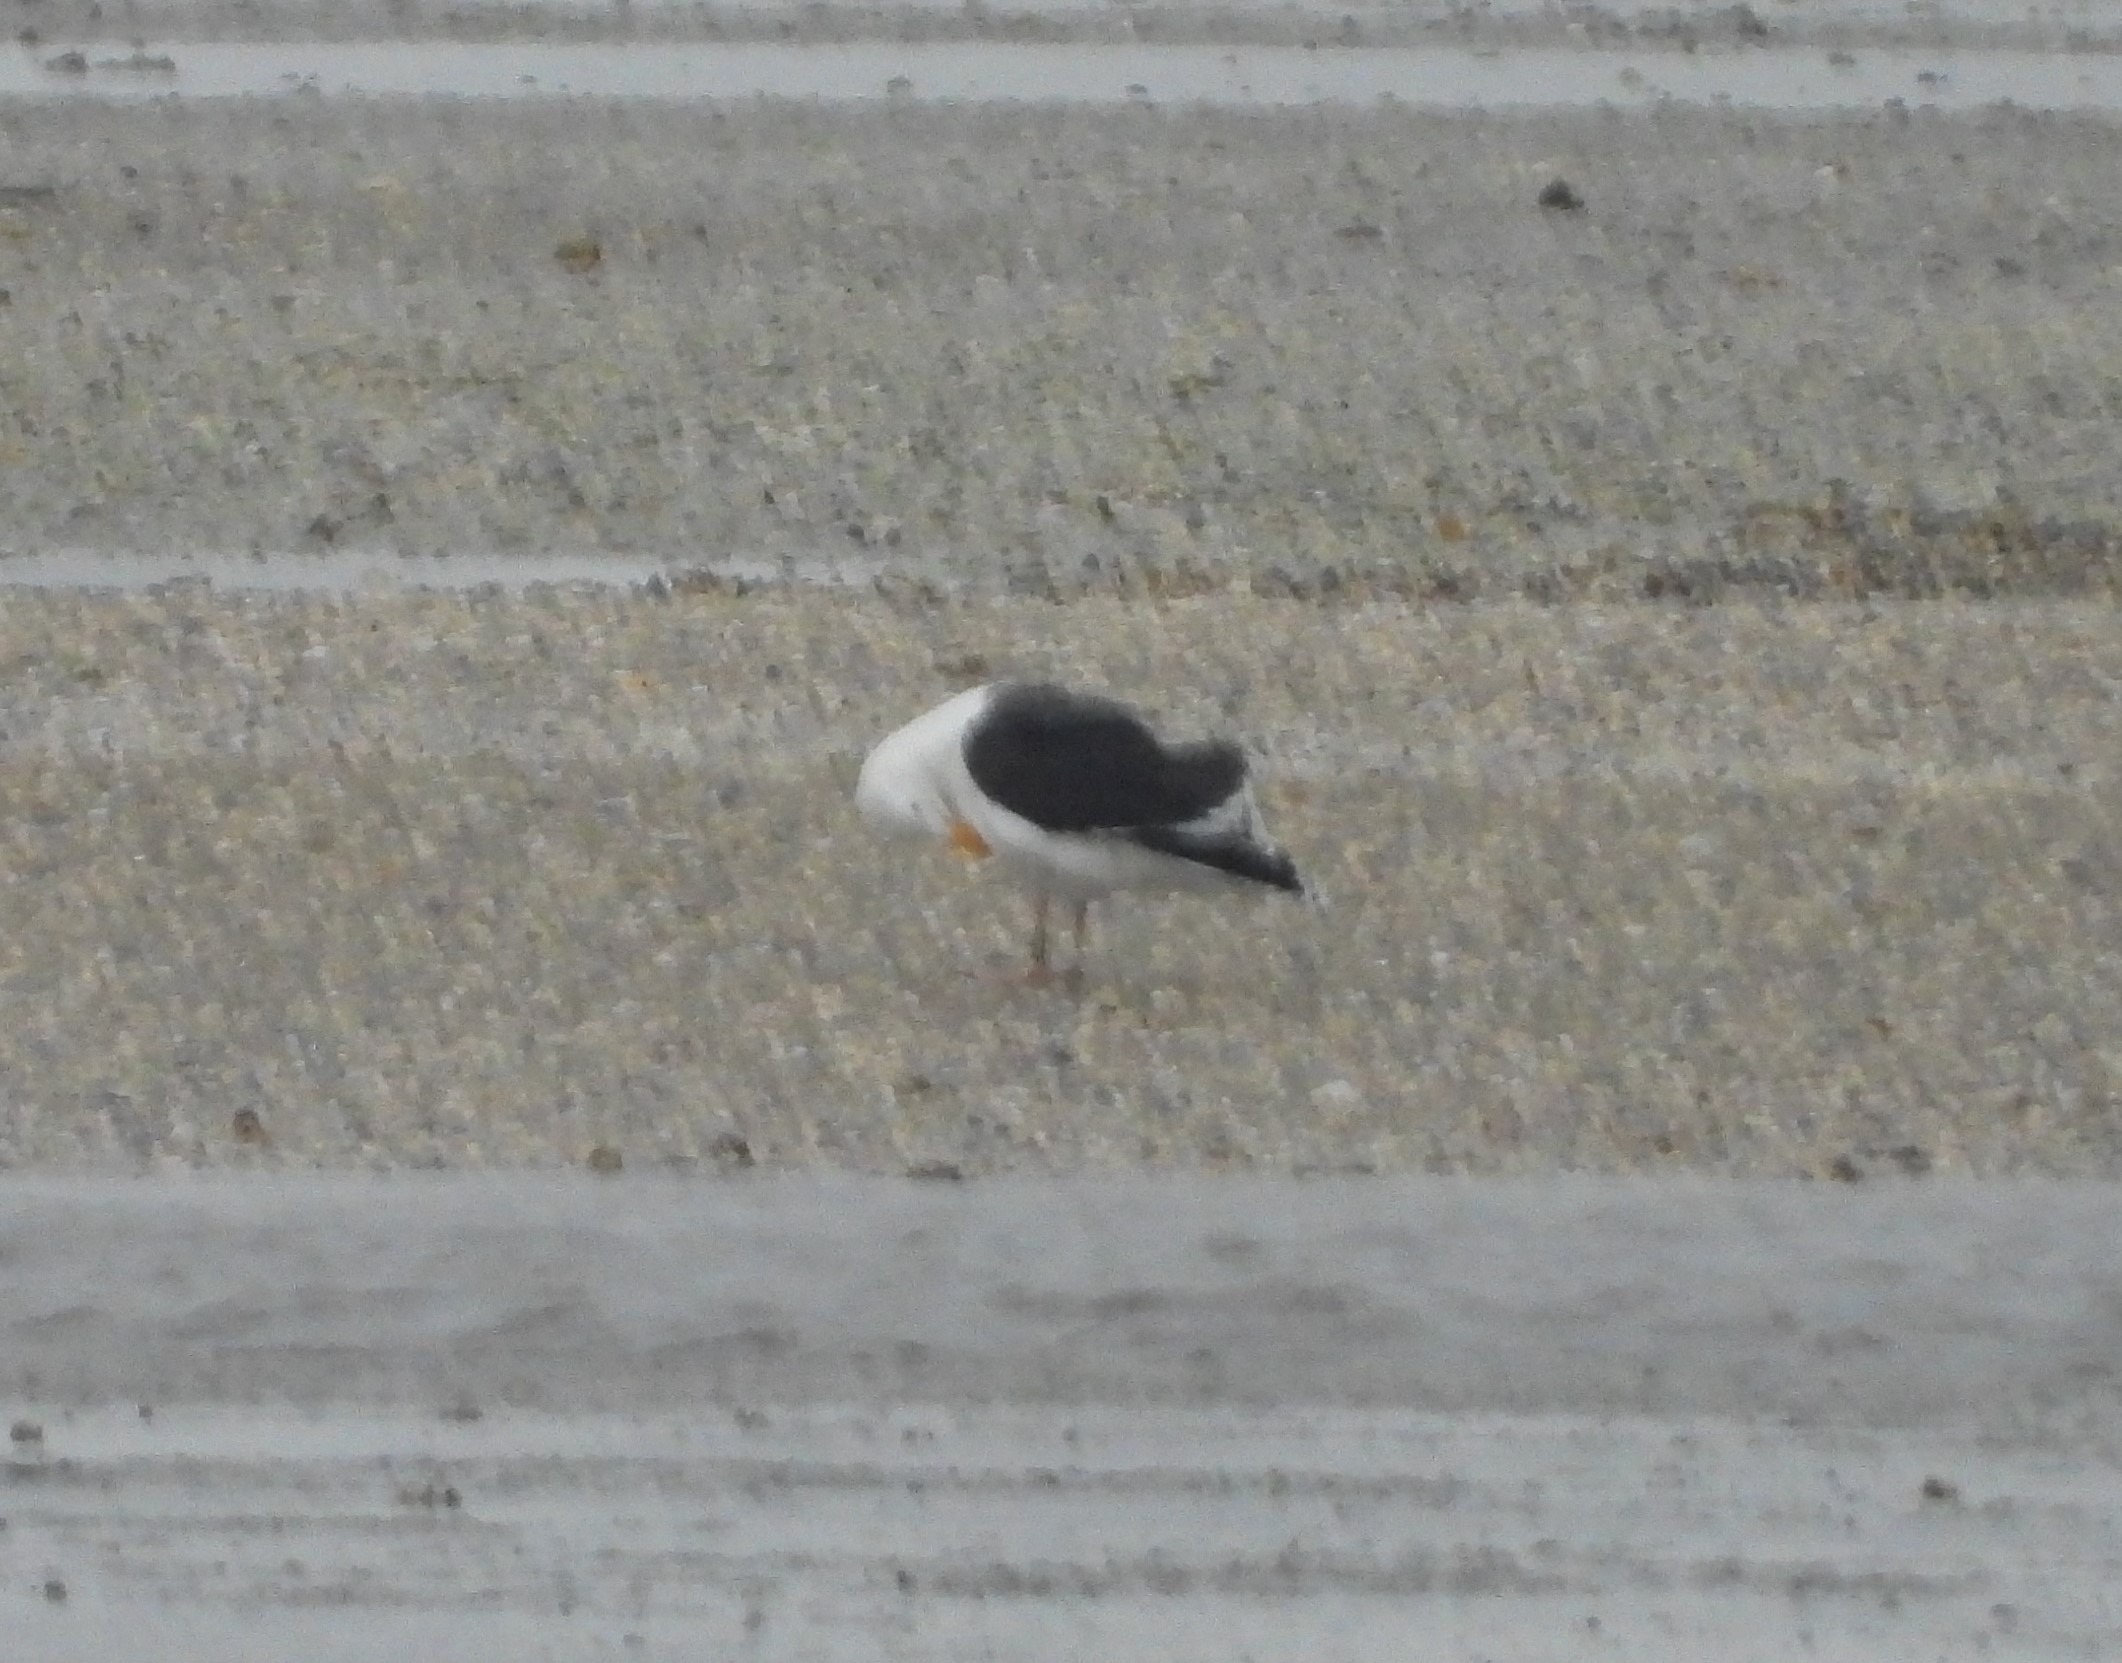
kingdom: Animalia
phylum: Chordata
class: Aves
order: Charadriiformes
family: Laridae
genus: Larus
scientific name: Larus marinus
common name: Svartbag
